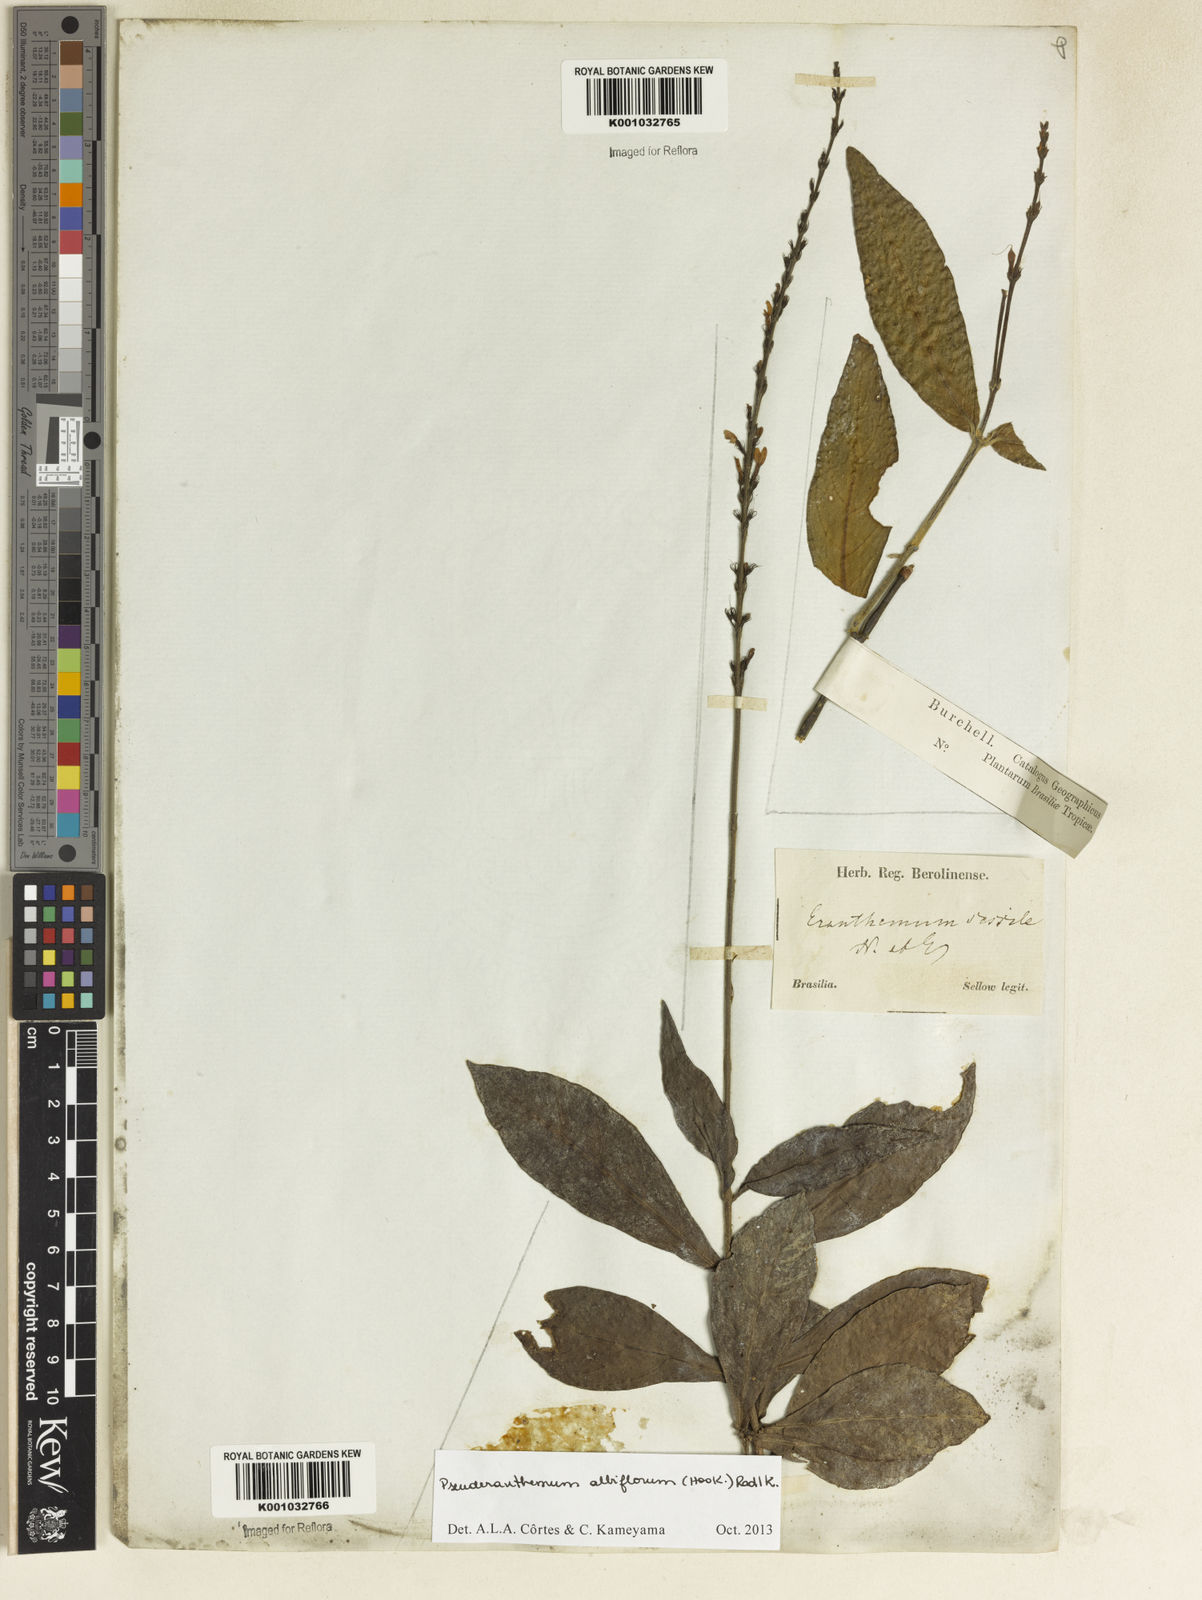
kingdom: Plantae
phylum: Tracheophyta
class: Magnoliopsida
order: Lamiales
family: Acanthaceae
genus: Pseuderanthemum
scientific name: Pseuderanthemum albiflorum
